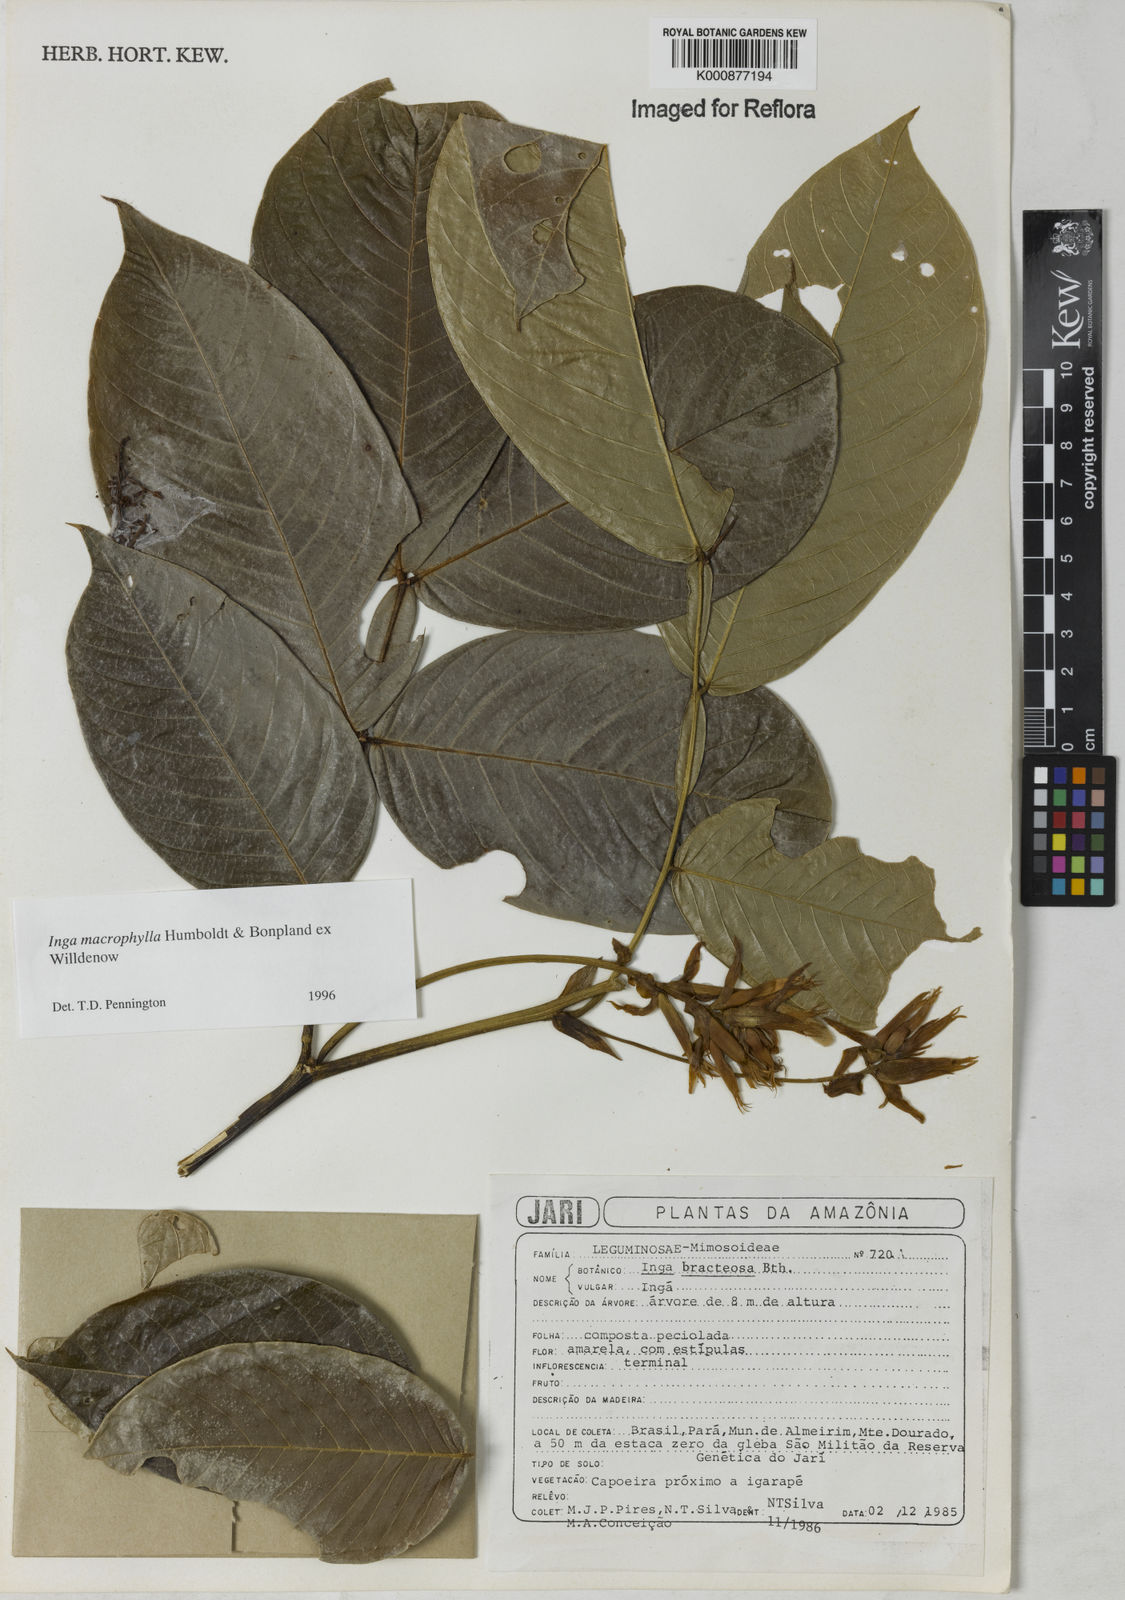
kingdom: Plantae
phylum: Tracheophyta
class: Magnoliopsida
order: Fabales
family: Fabaceae
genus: Inga
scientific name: Inga macrophylla
